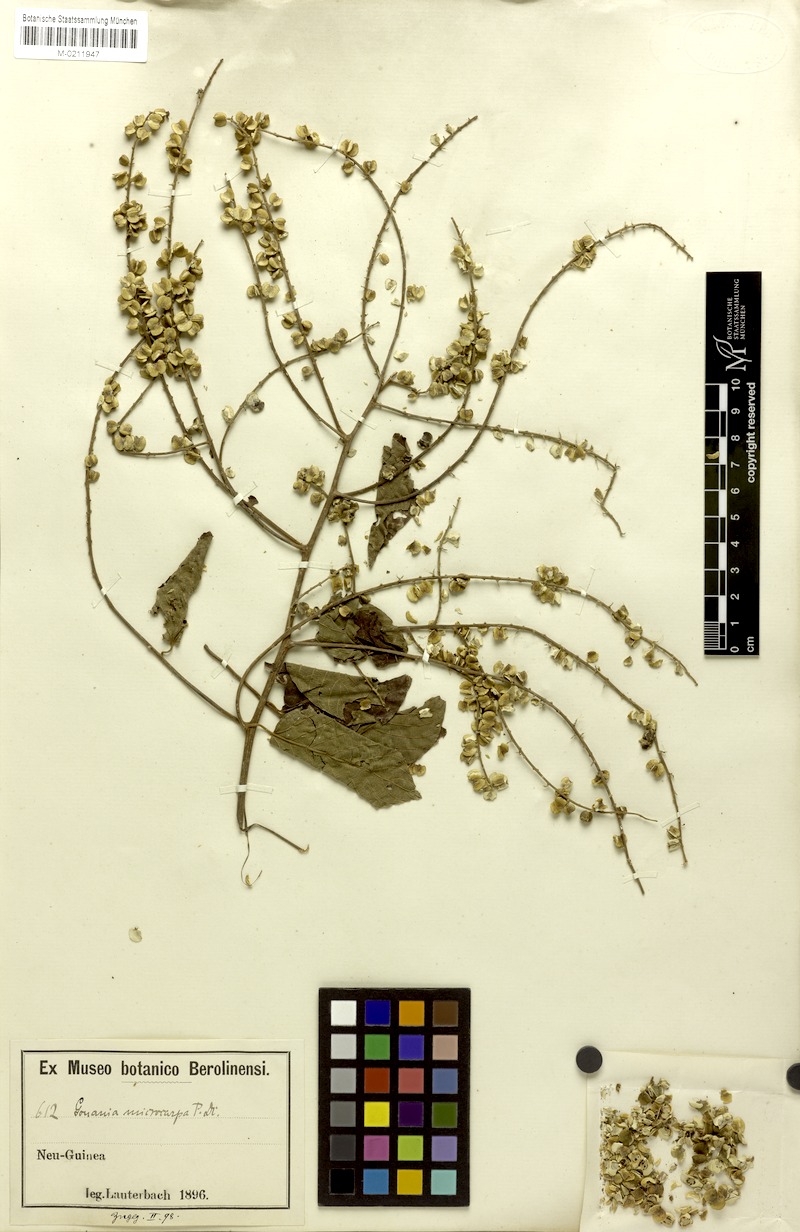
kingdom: Plantae
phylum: Tracheophyta
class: Magnoliopsida
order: Rosales
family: Rhamnaceae
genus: Gouania
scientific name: Gouania microcarpa
